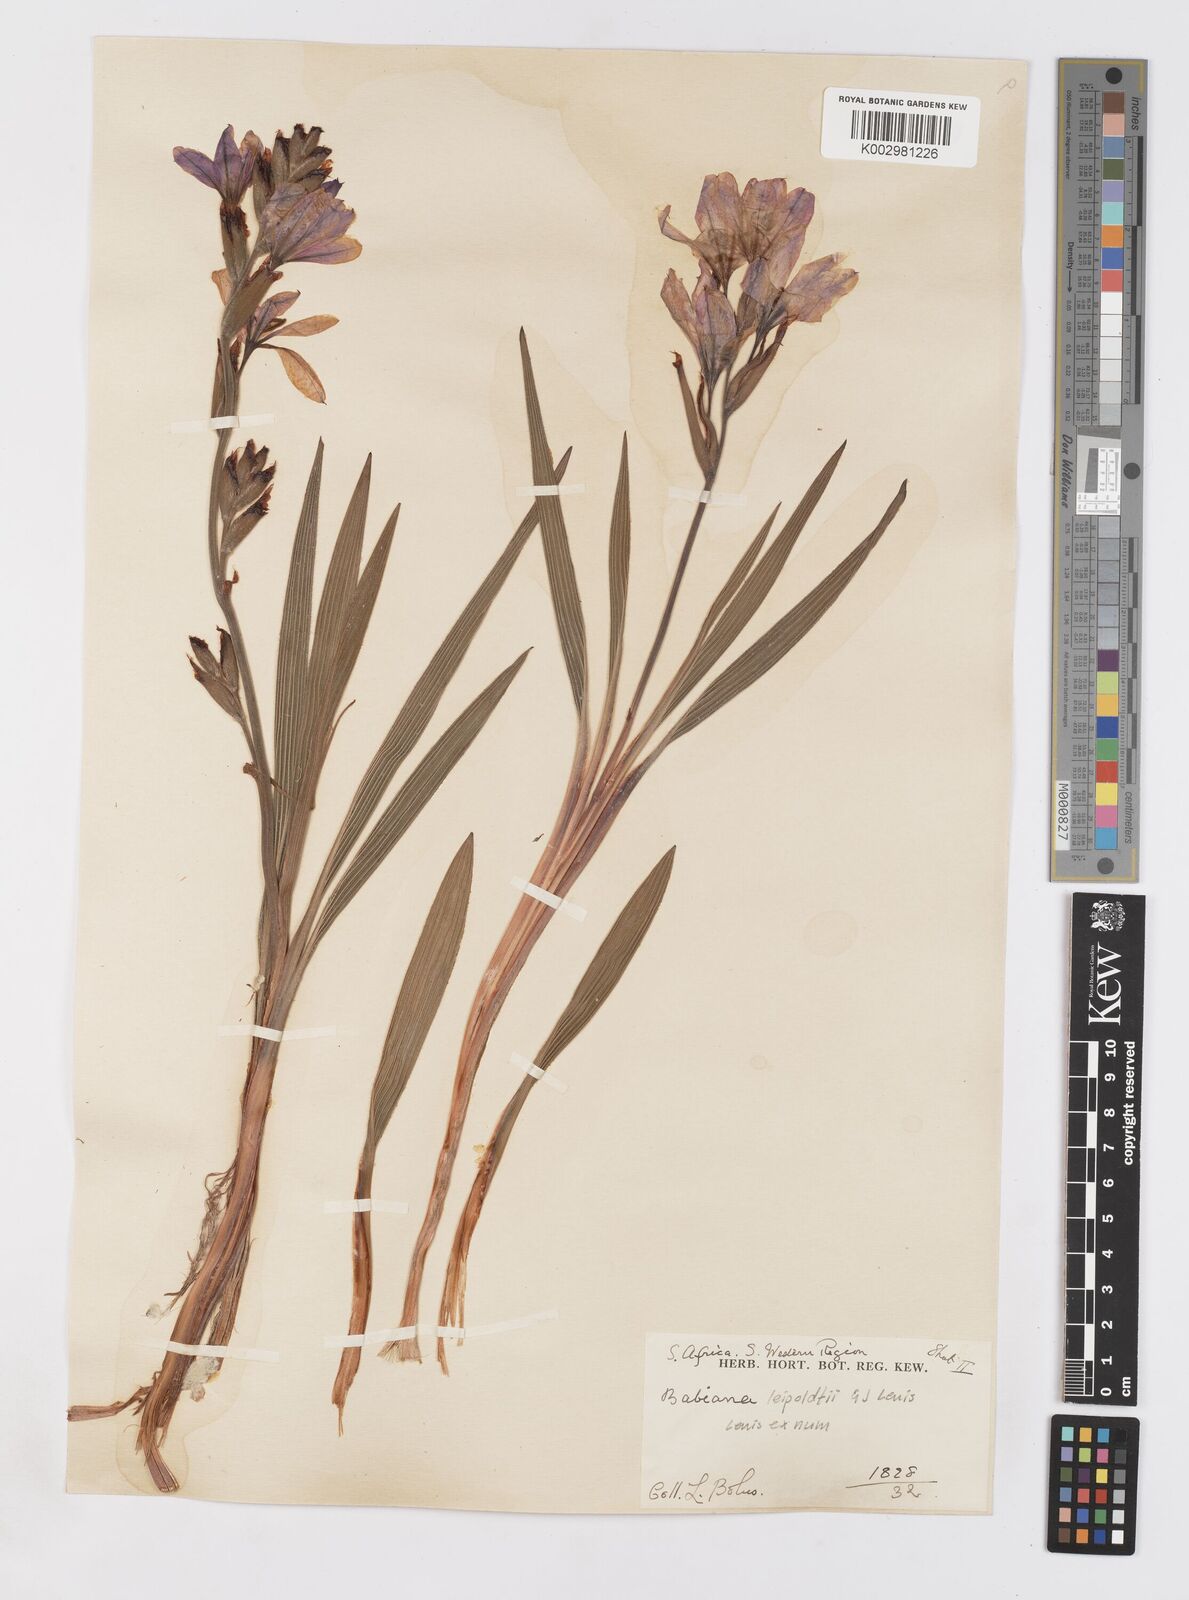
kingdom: Plantae
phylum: Tracheophyta
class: Liliopsida
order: Asparagales
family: Iridaceae
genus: Babiana
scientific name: Babiana leipoldtii
